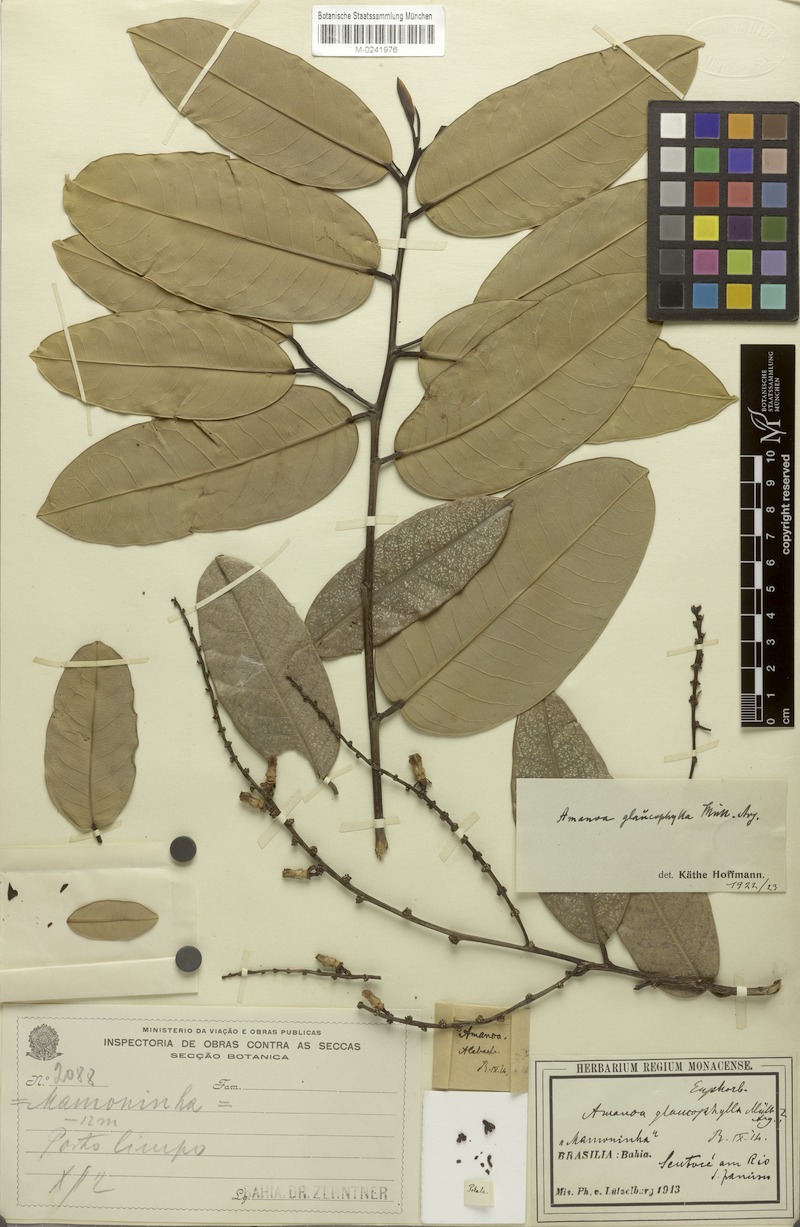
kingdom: Plantae
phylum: Tracheophyta
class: Magnoliopsida
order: Malpighiales
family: Phyllanthaceae
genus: Amanoa
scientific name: Amanoa glaucophylla
